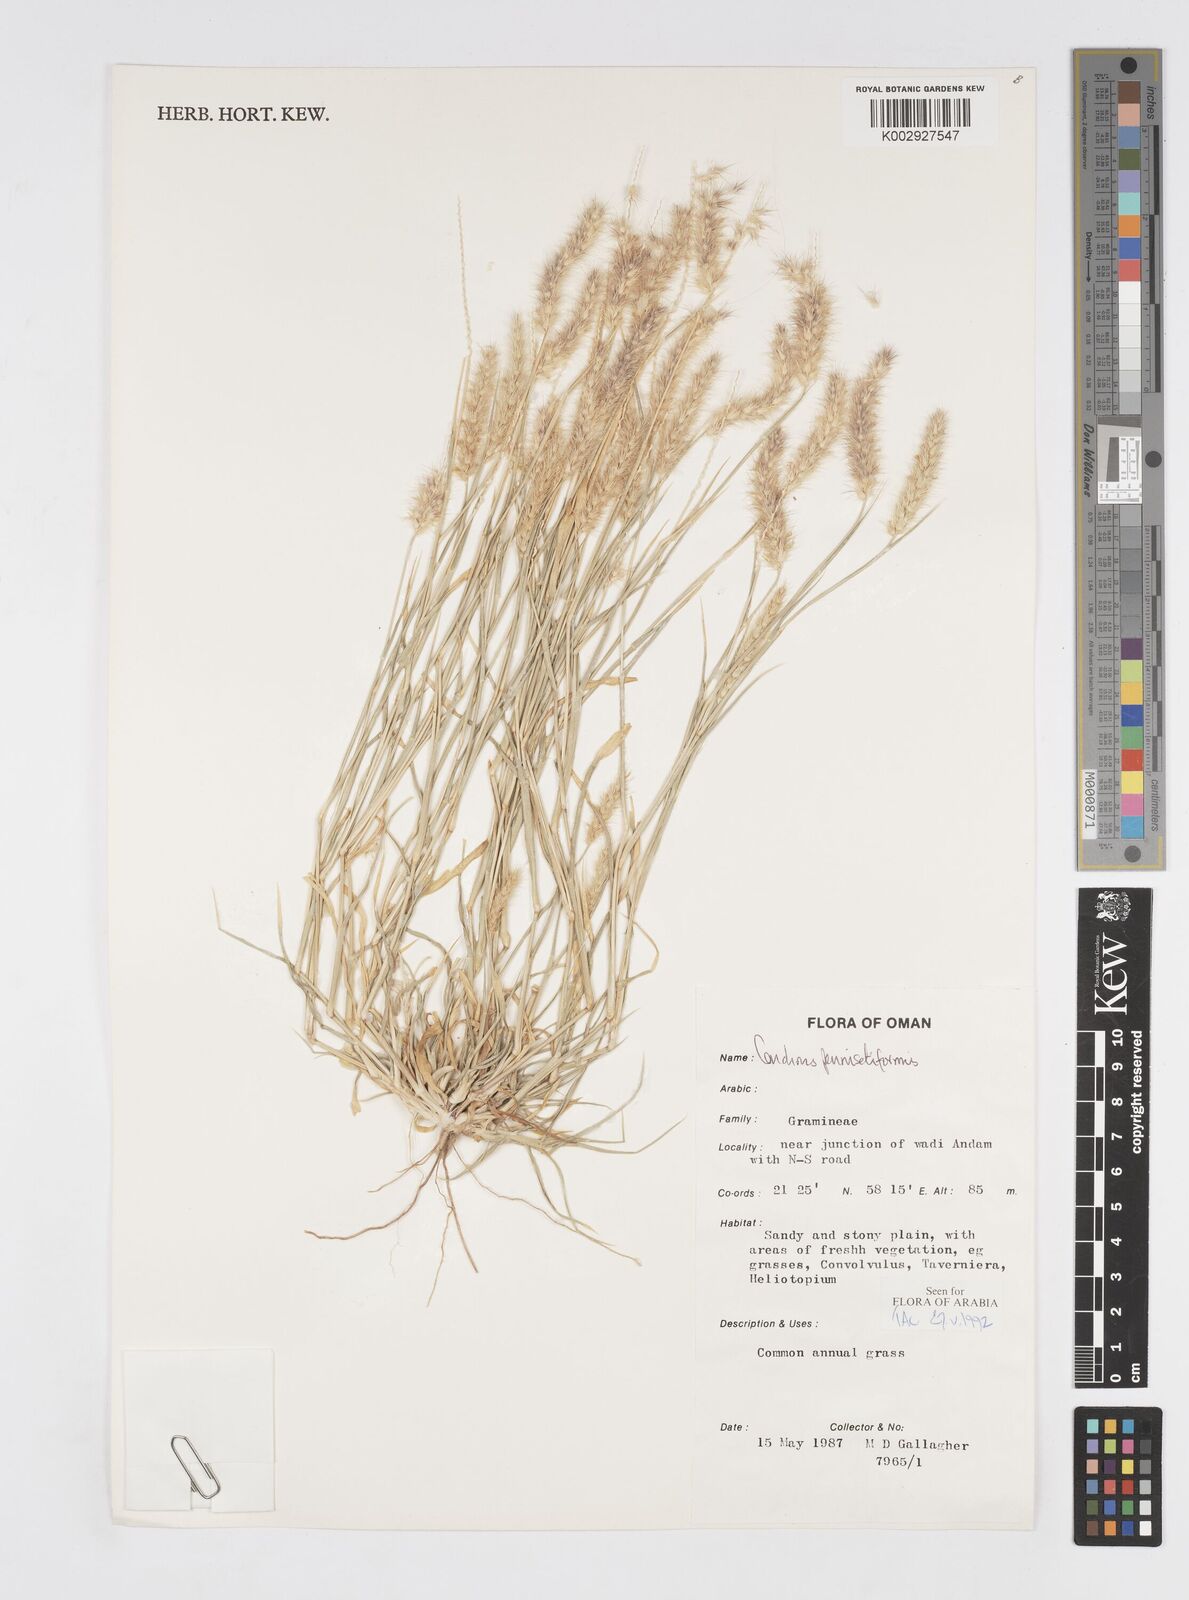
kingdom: Plantae
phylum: Tracheophyta
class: Liliopsida
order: Poales
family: Poaceae
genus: Cenchrus
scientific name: Cenchrus pennisetiformis
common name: Cloncurry
